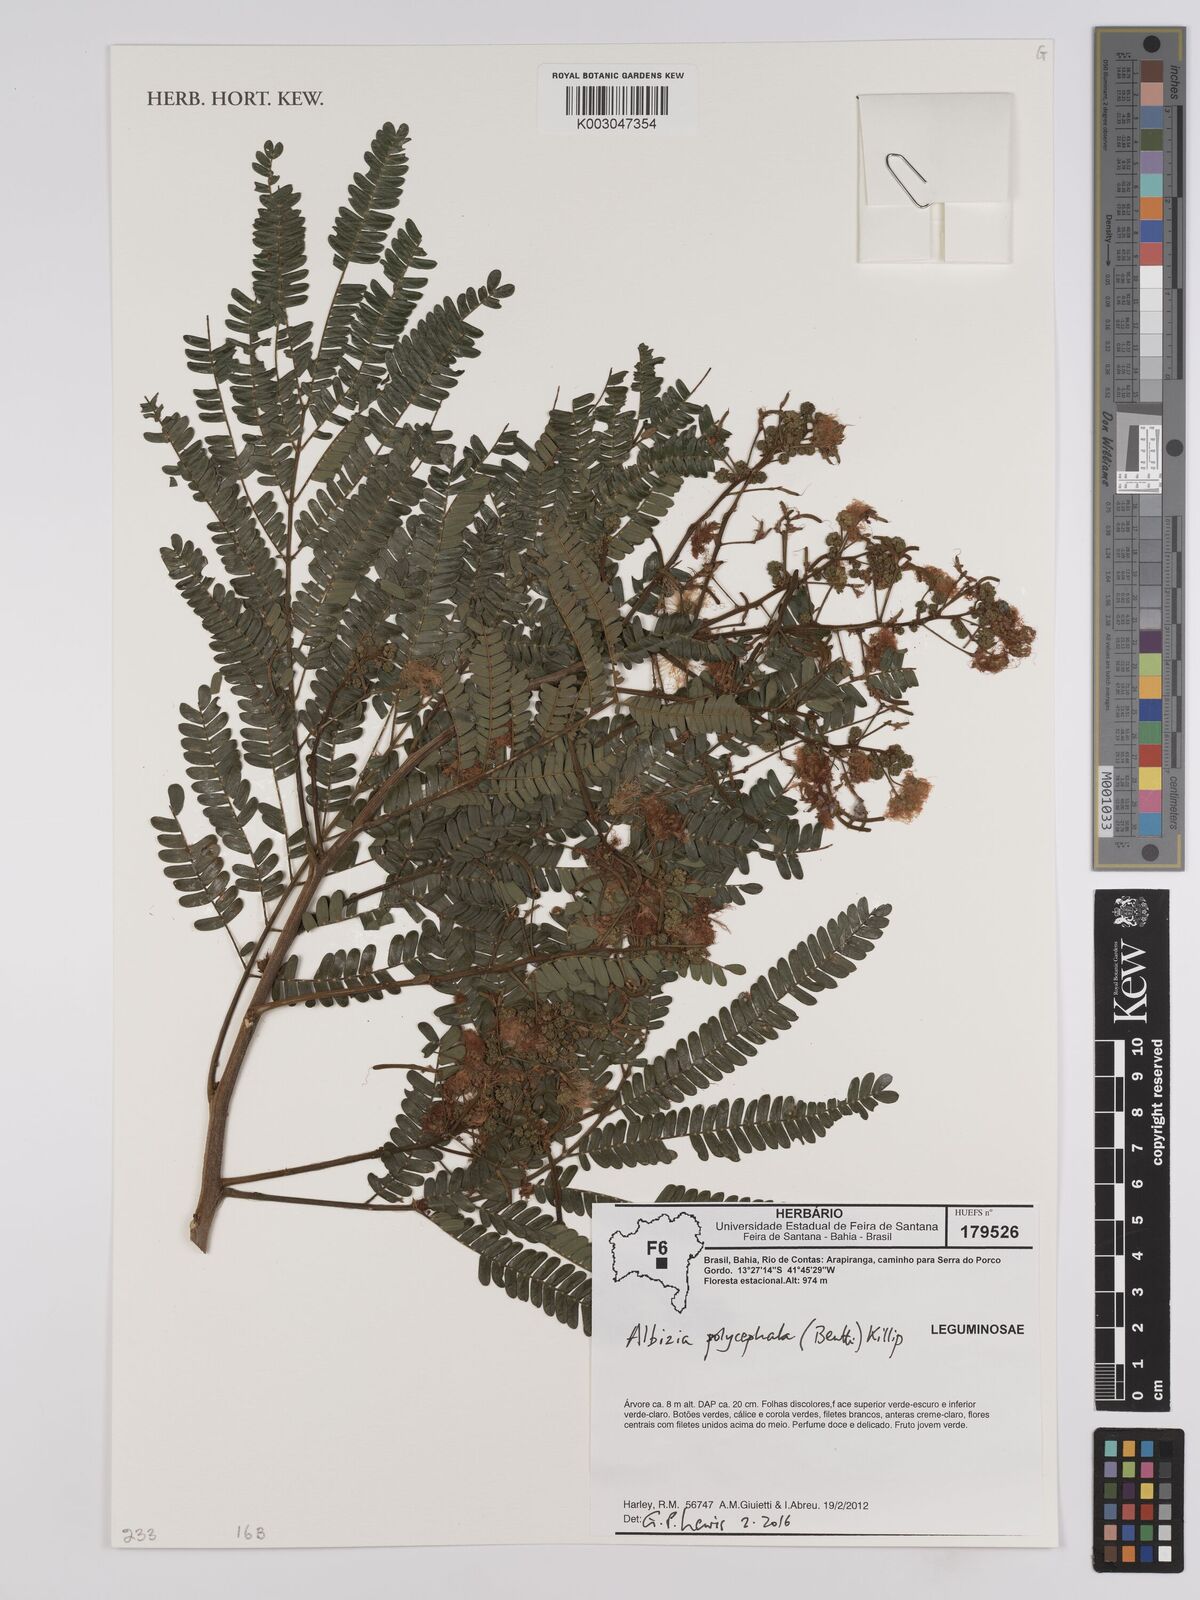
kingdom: Plantae
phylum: Tracheophyta
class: Magnoliopsida
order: Fabales
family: Fabaceae
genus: Albizia
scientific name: Albizia polycephala
